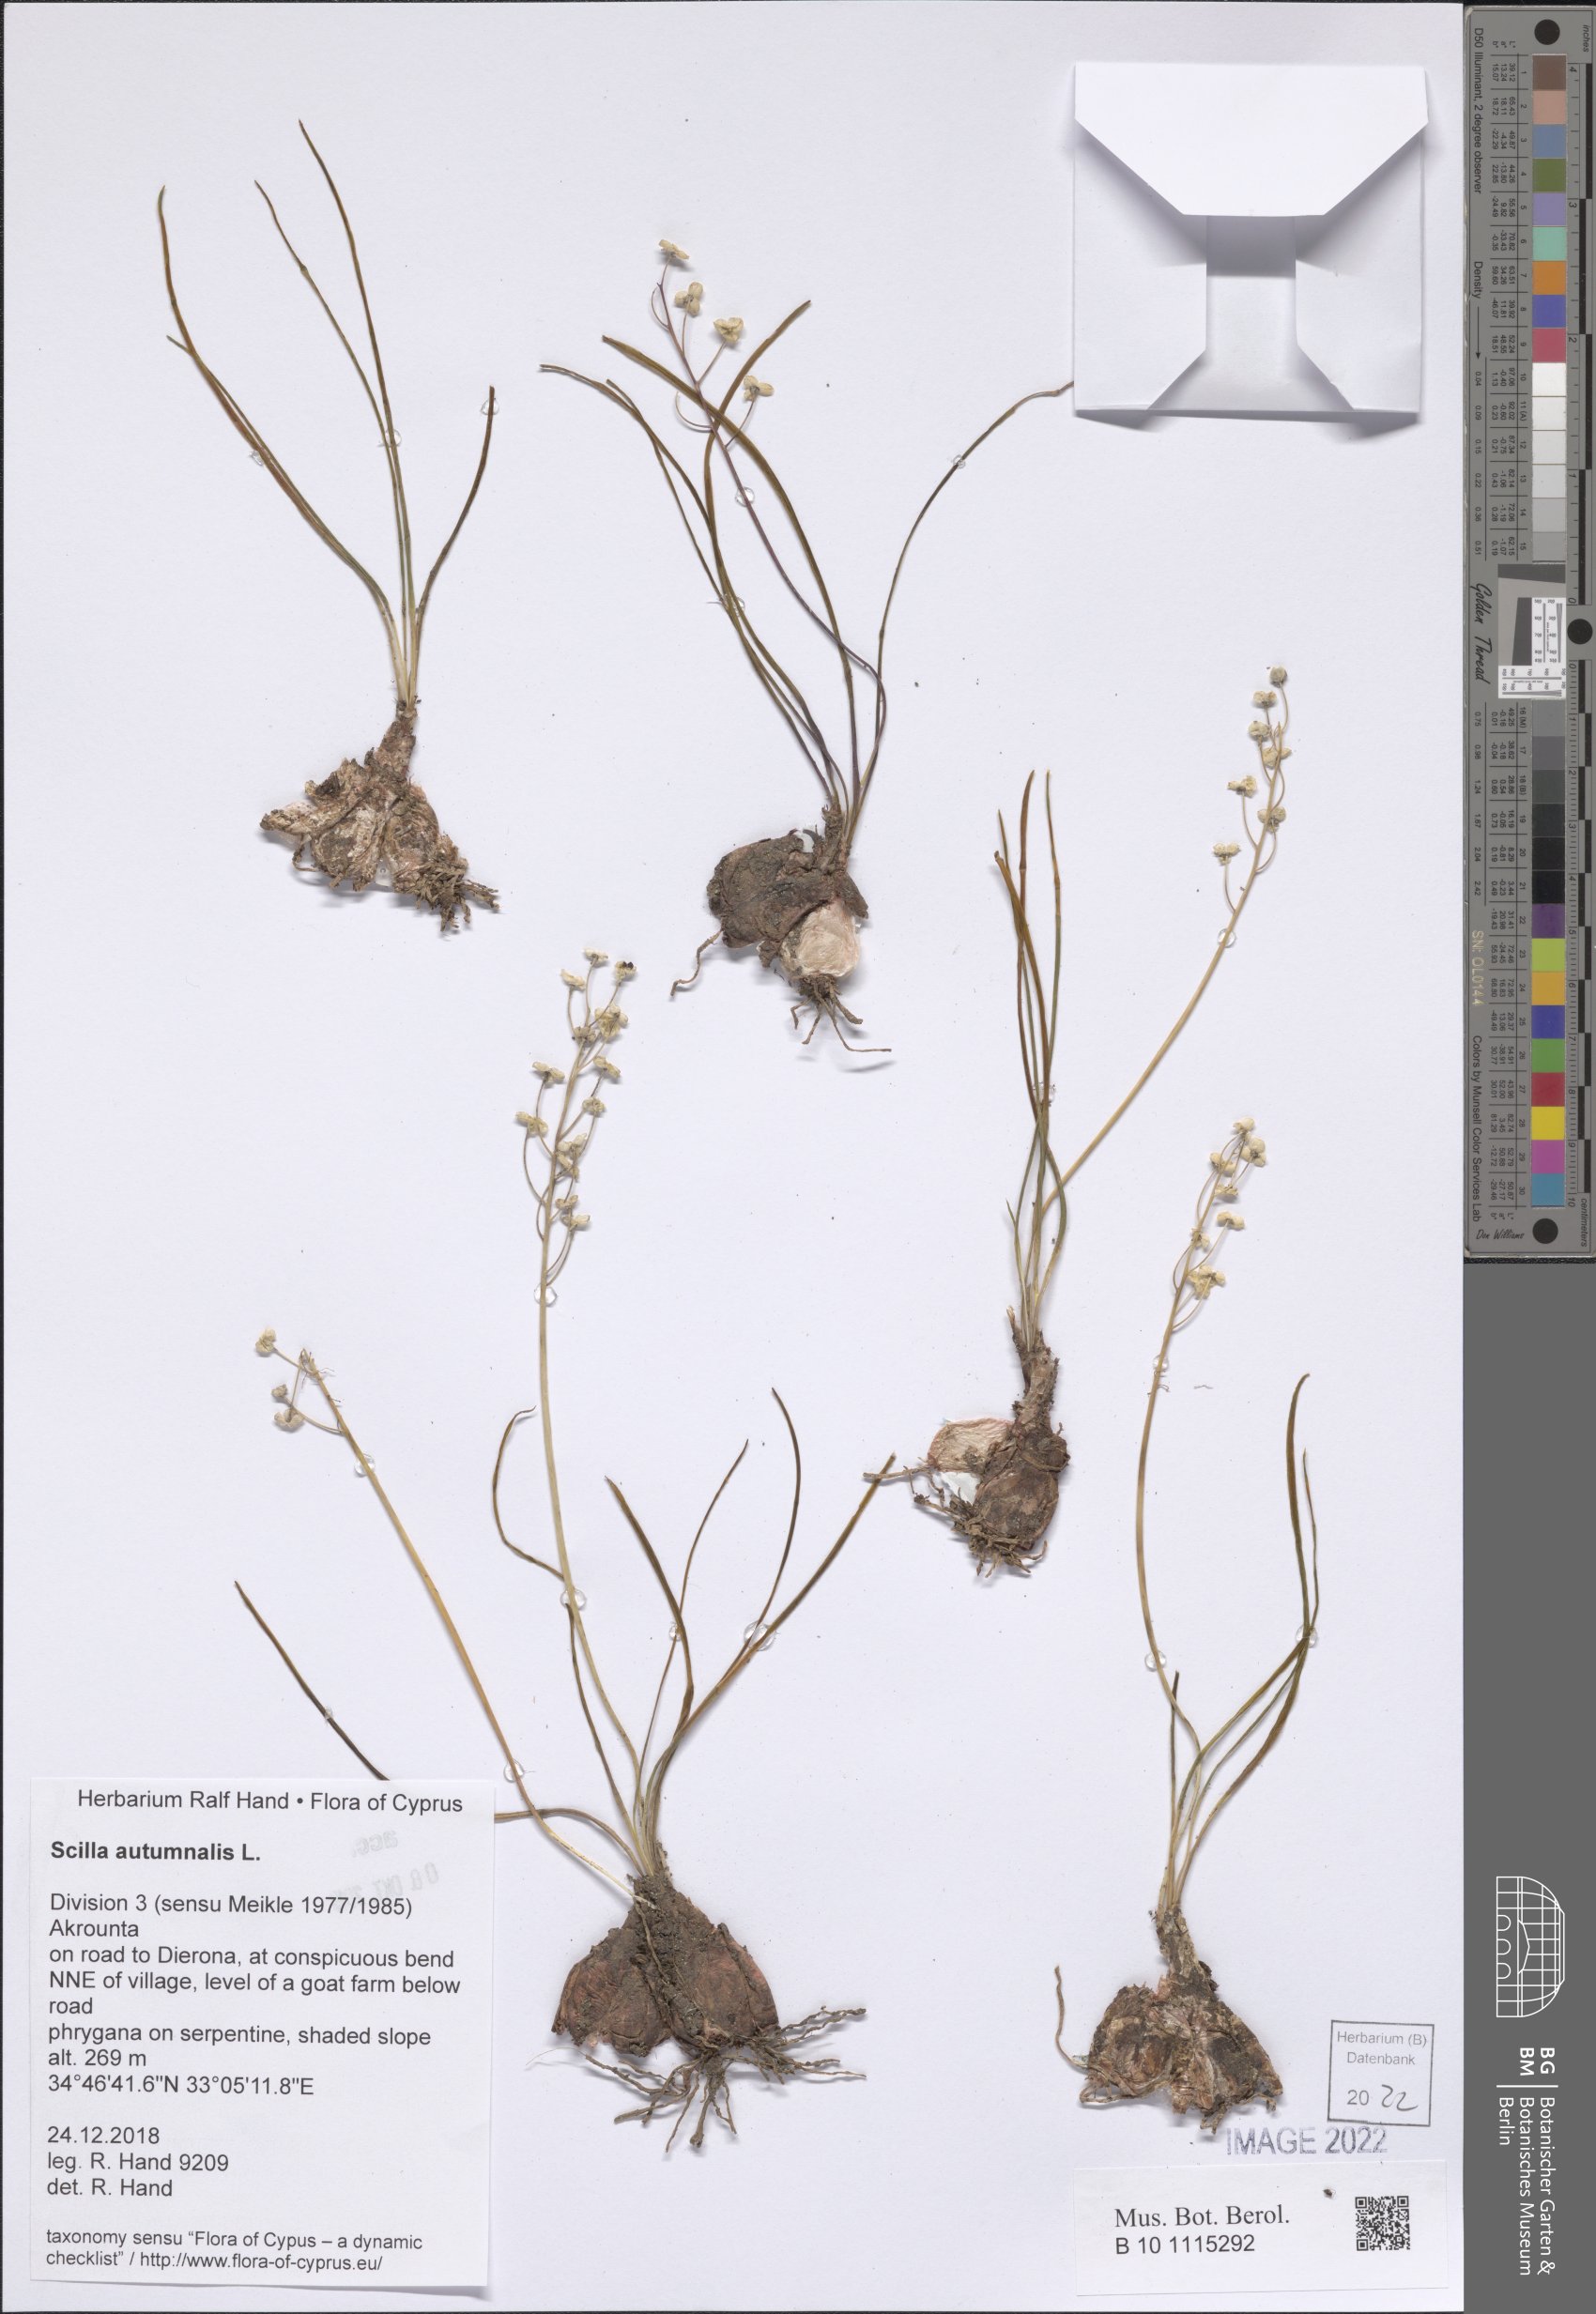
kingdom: Plantae
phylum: Tracheophyta
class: Liliopsida
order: Asparagales
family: Asparagaceae
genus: Prospero
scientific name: Prospero autumnale
